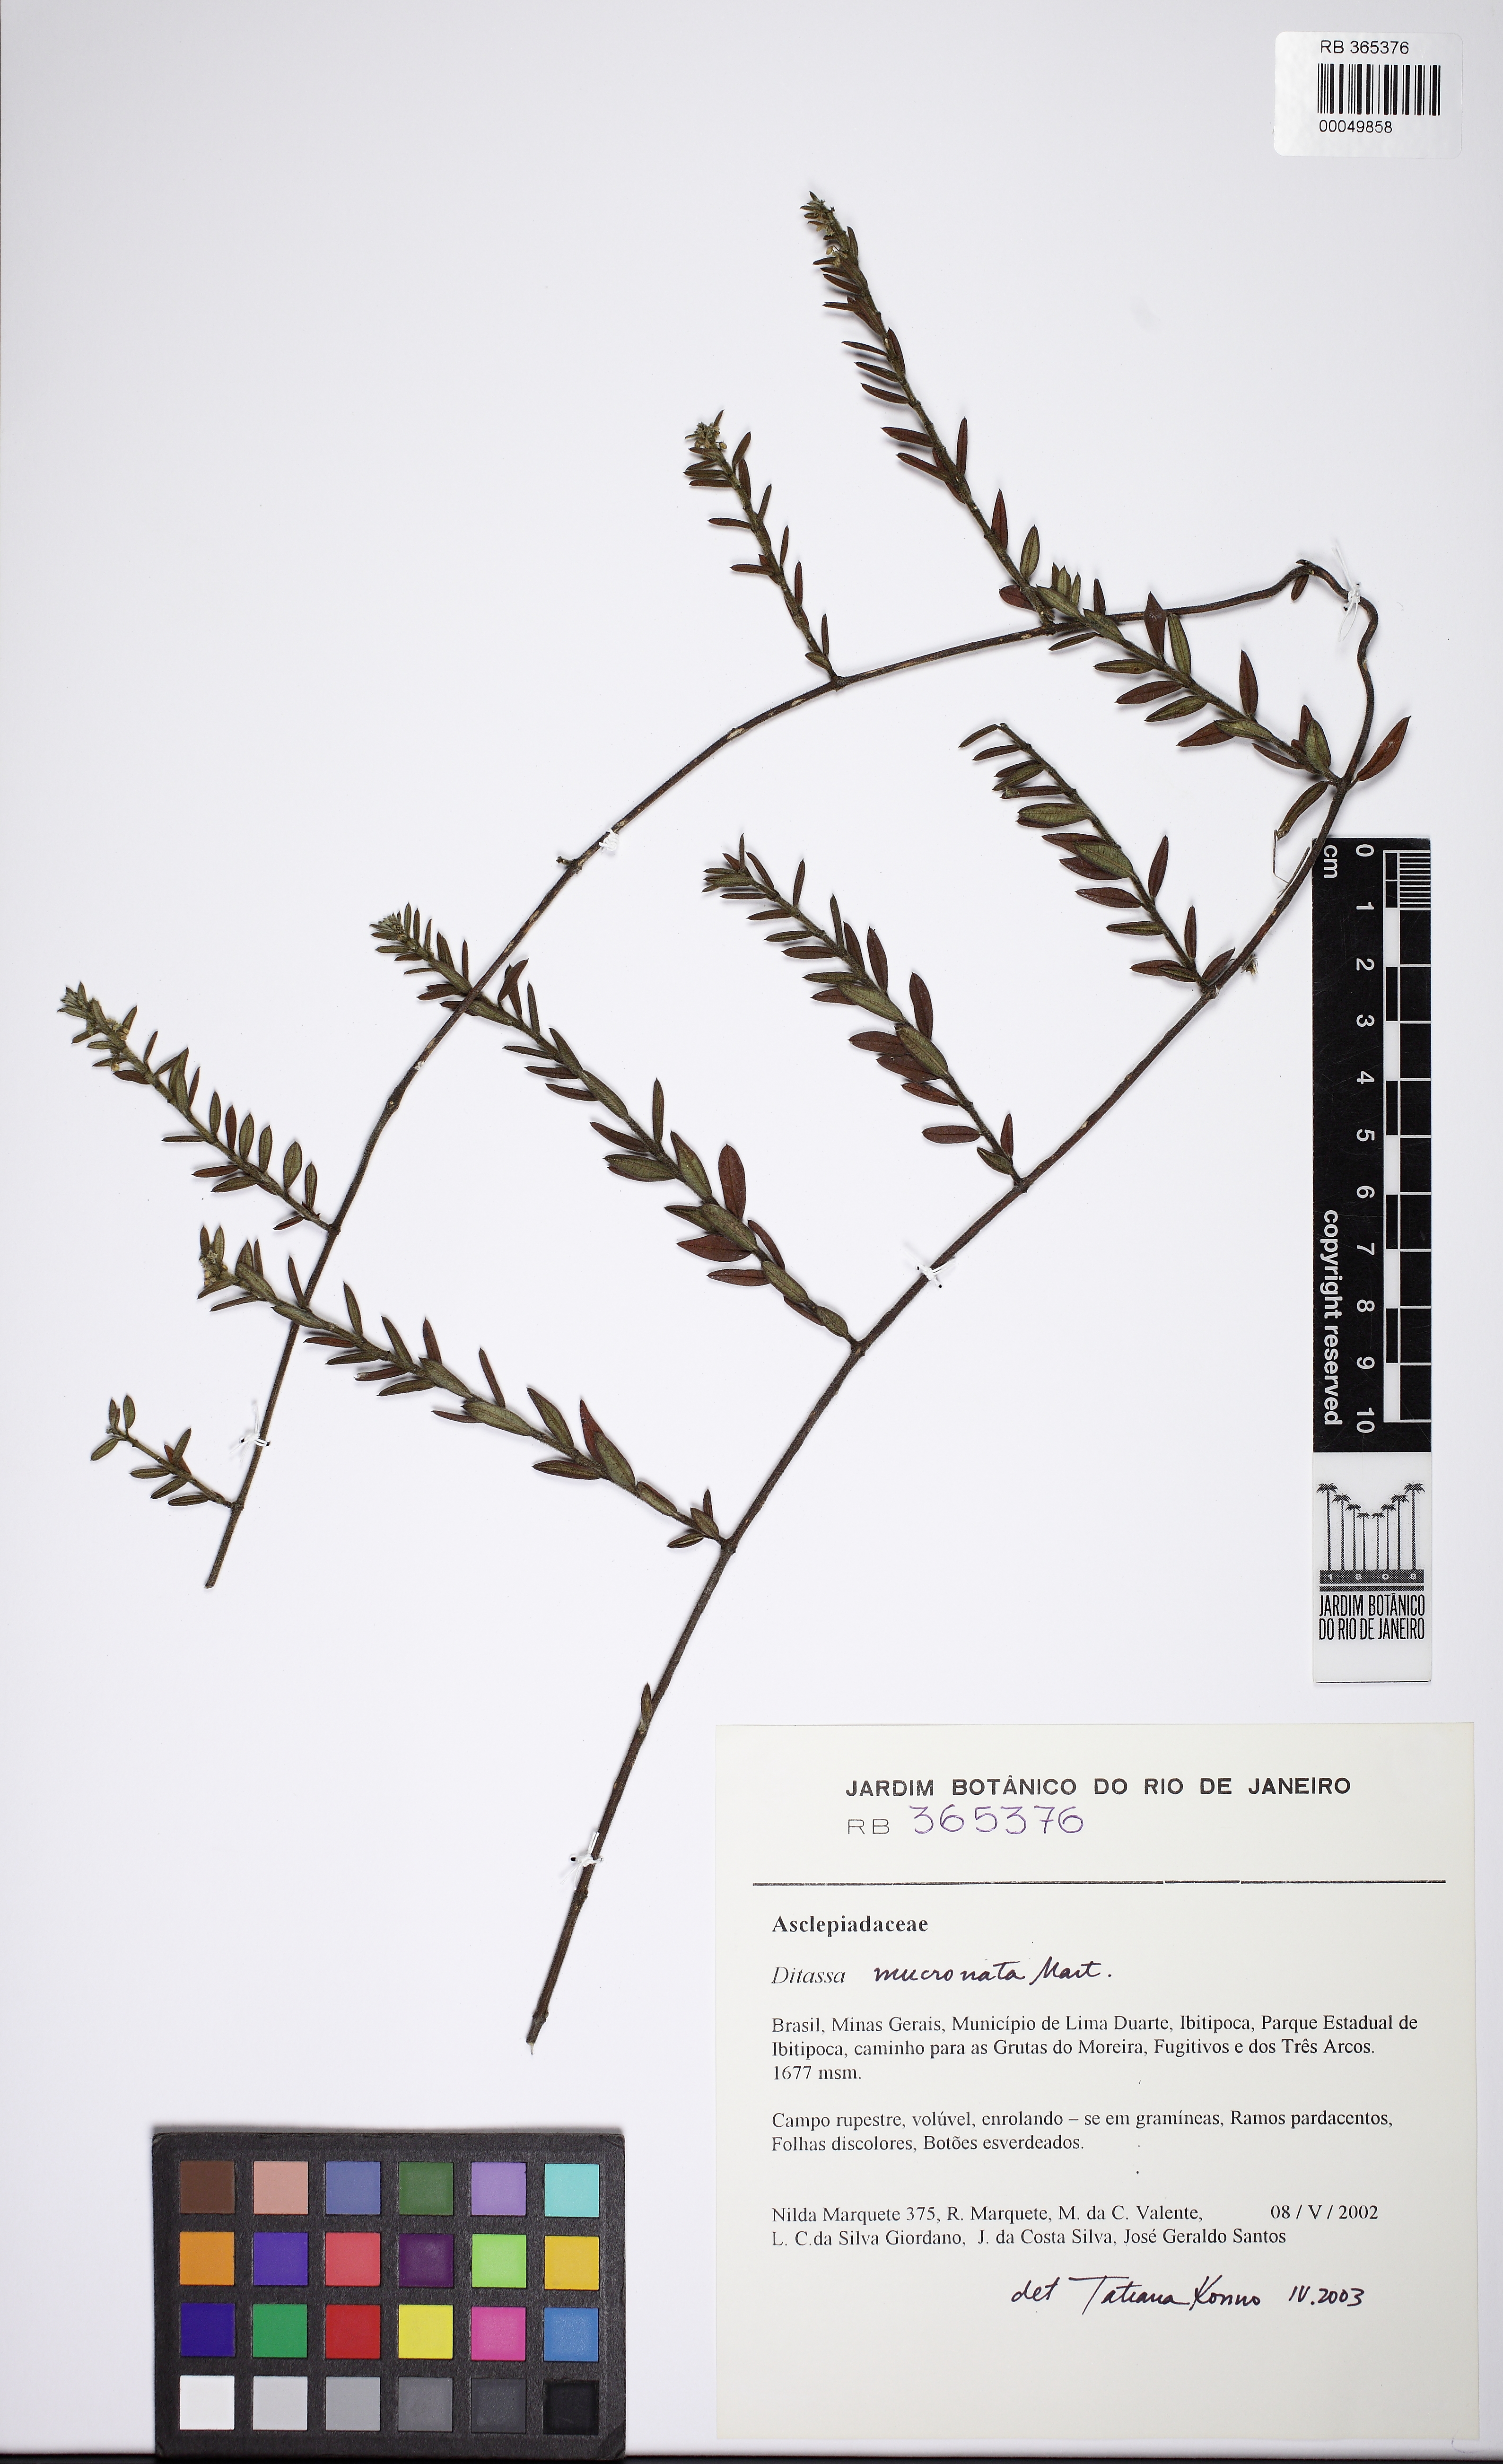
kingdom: Plantae
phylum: Tracheophyta
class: Magnoliopsida
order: Gentianales
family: Apocynaceae
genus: Ditassa
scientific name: Ditassa mucronata
